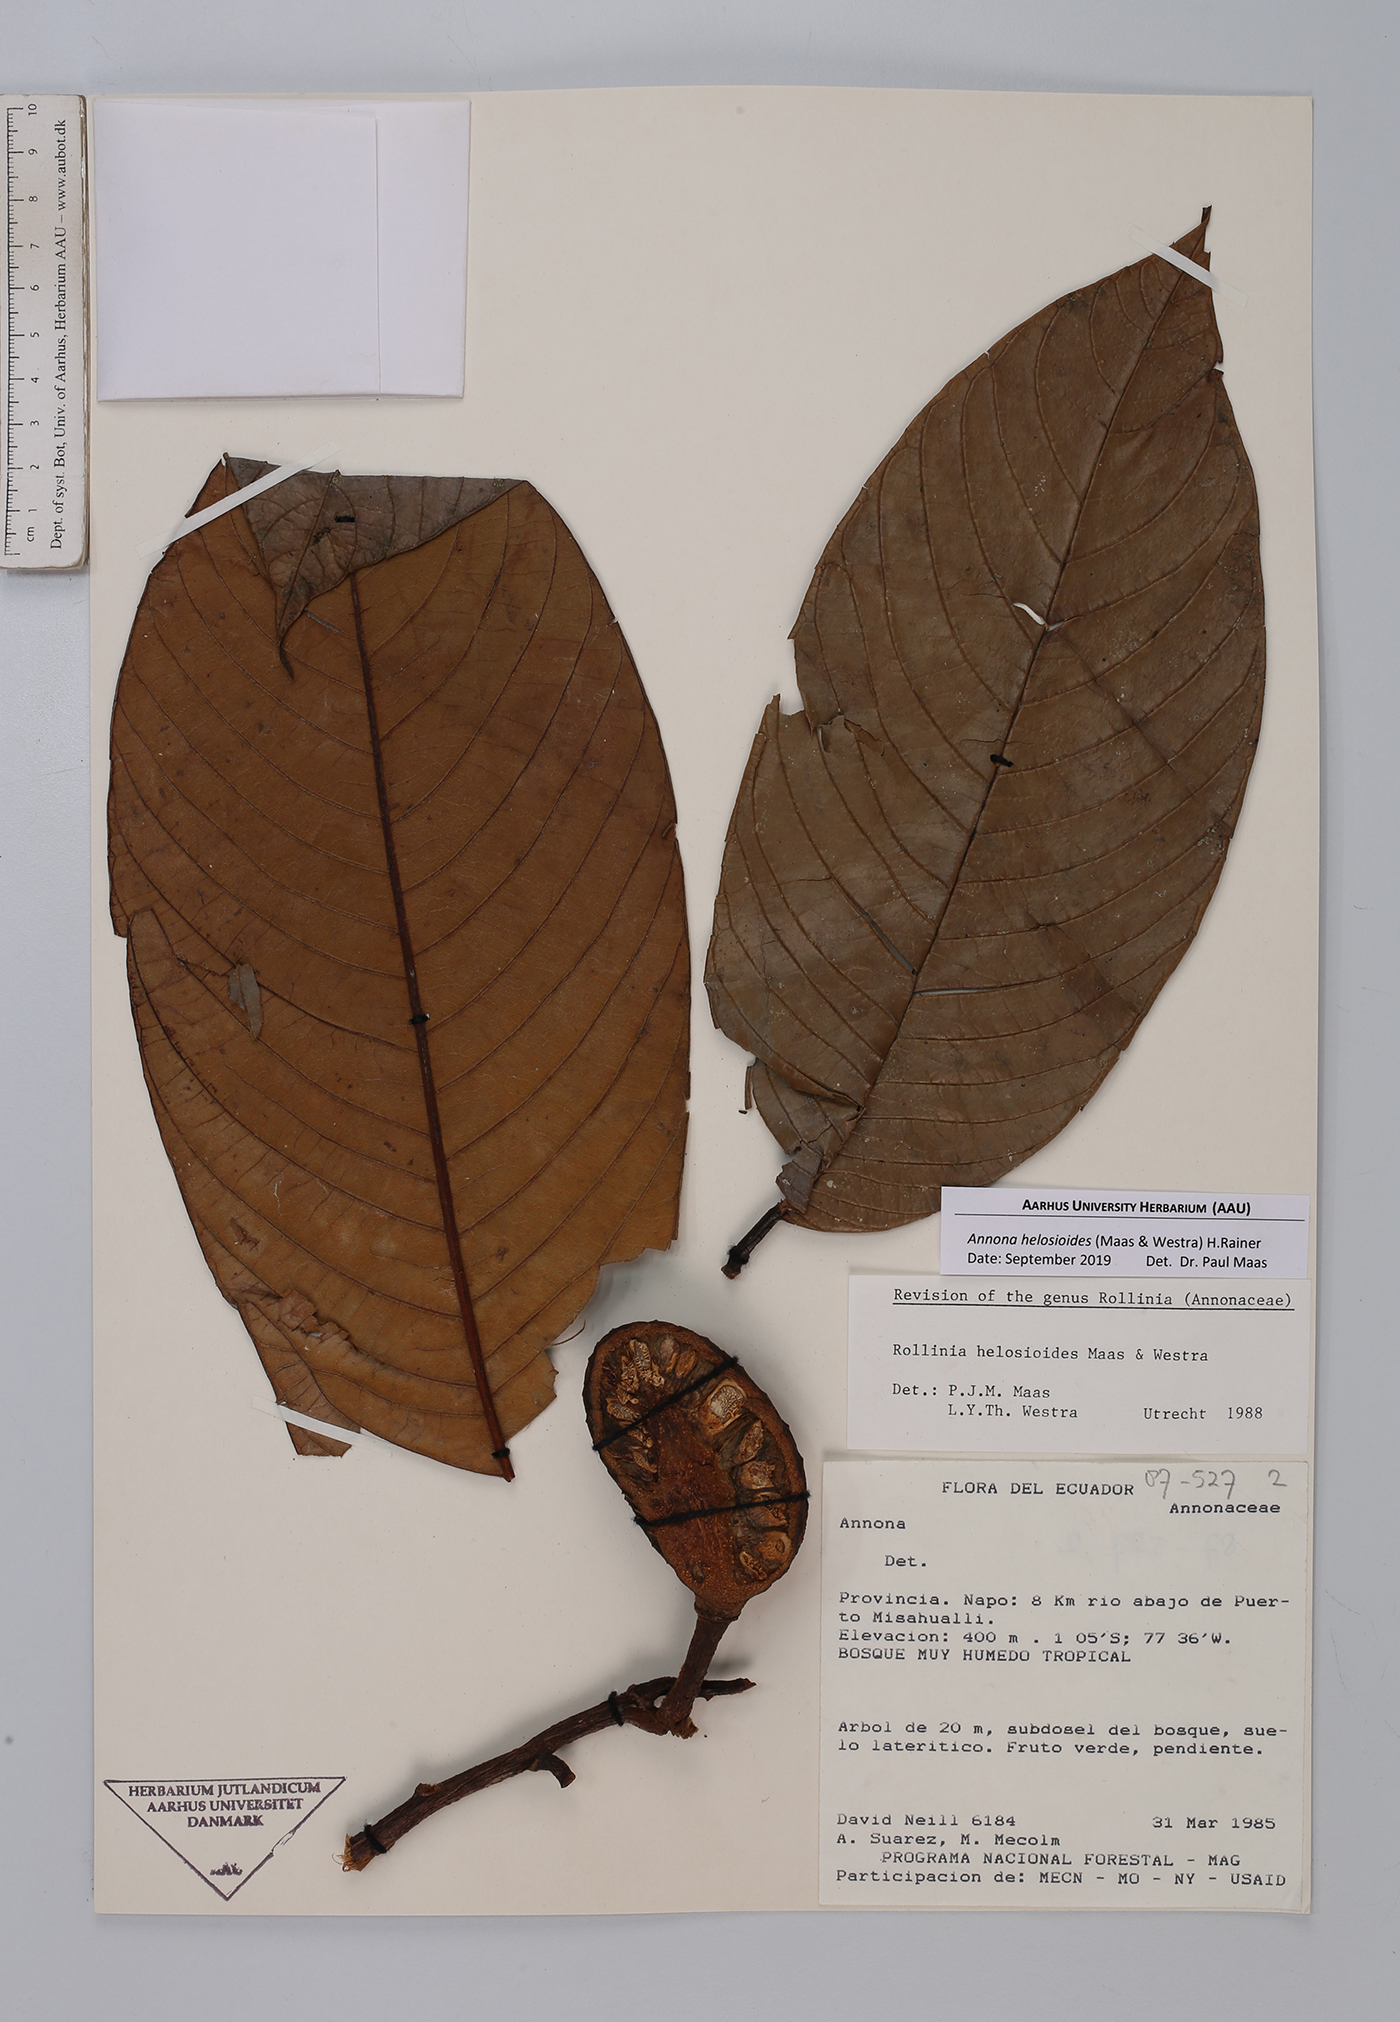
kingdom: Plantae
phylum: Tracheophyta
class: Magnoliopsida
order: Magnoliales
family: Annonaceae
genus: Annona
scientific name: Annona helosioides
